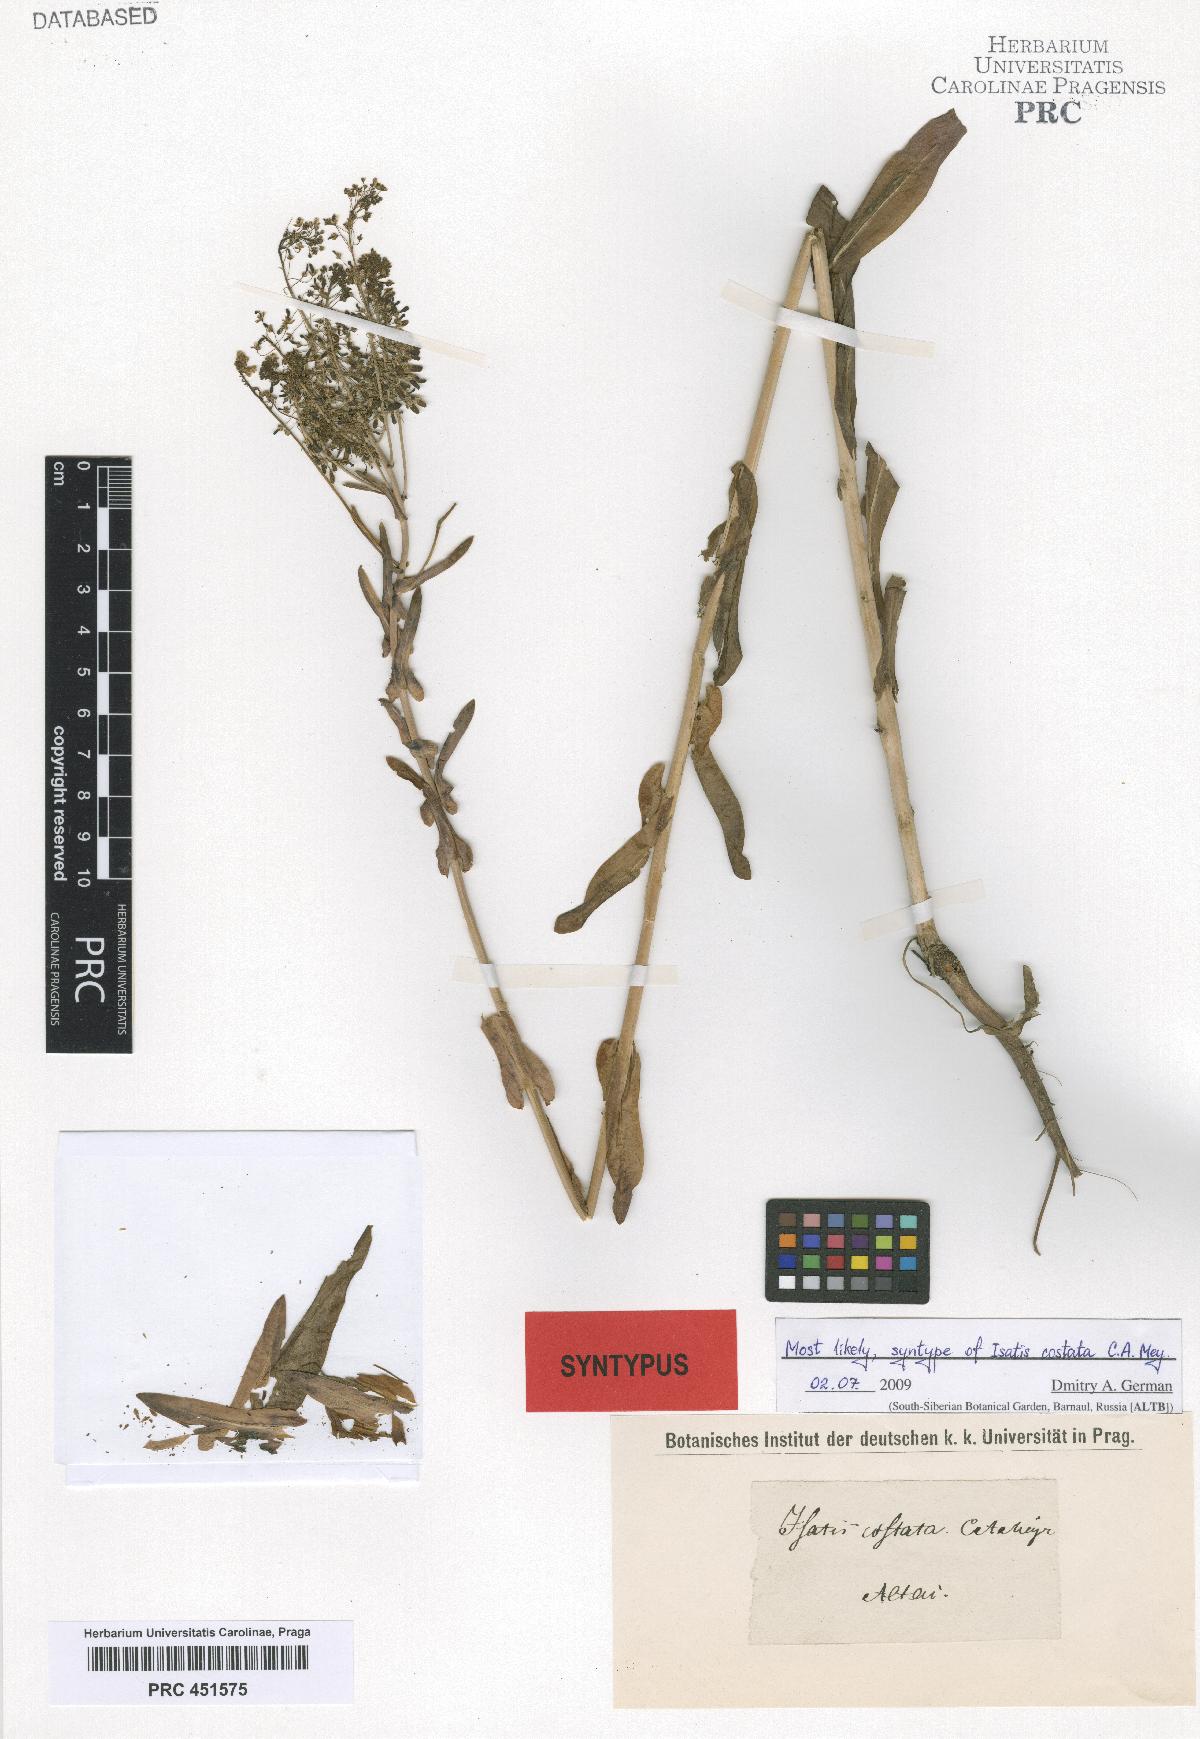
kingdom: Plantae
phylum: Tracheophyta
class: Magnoliopsida
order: Brassicales
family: Brassicaceae
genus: Isatis
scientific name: Isatis costata
